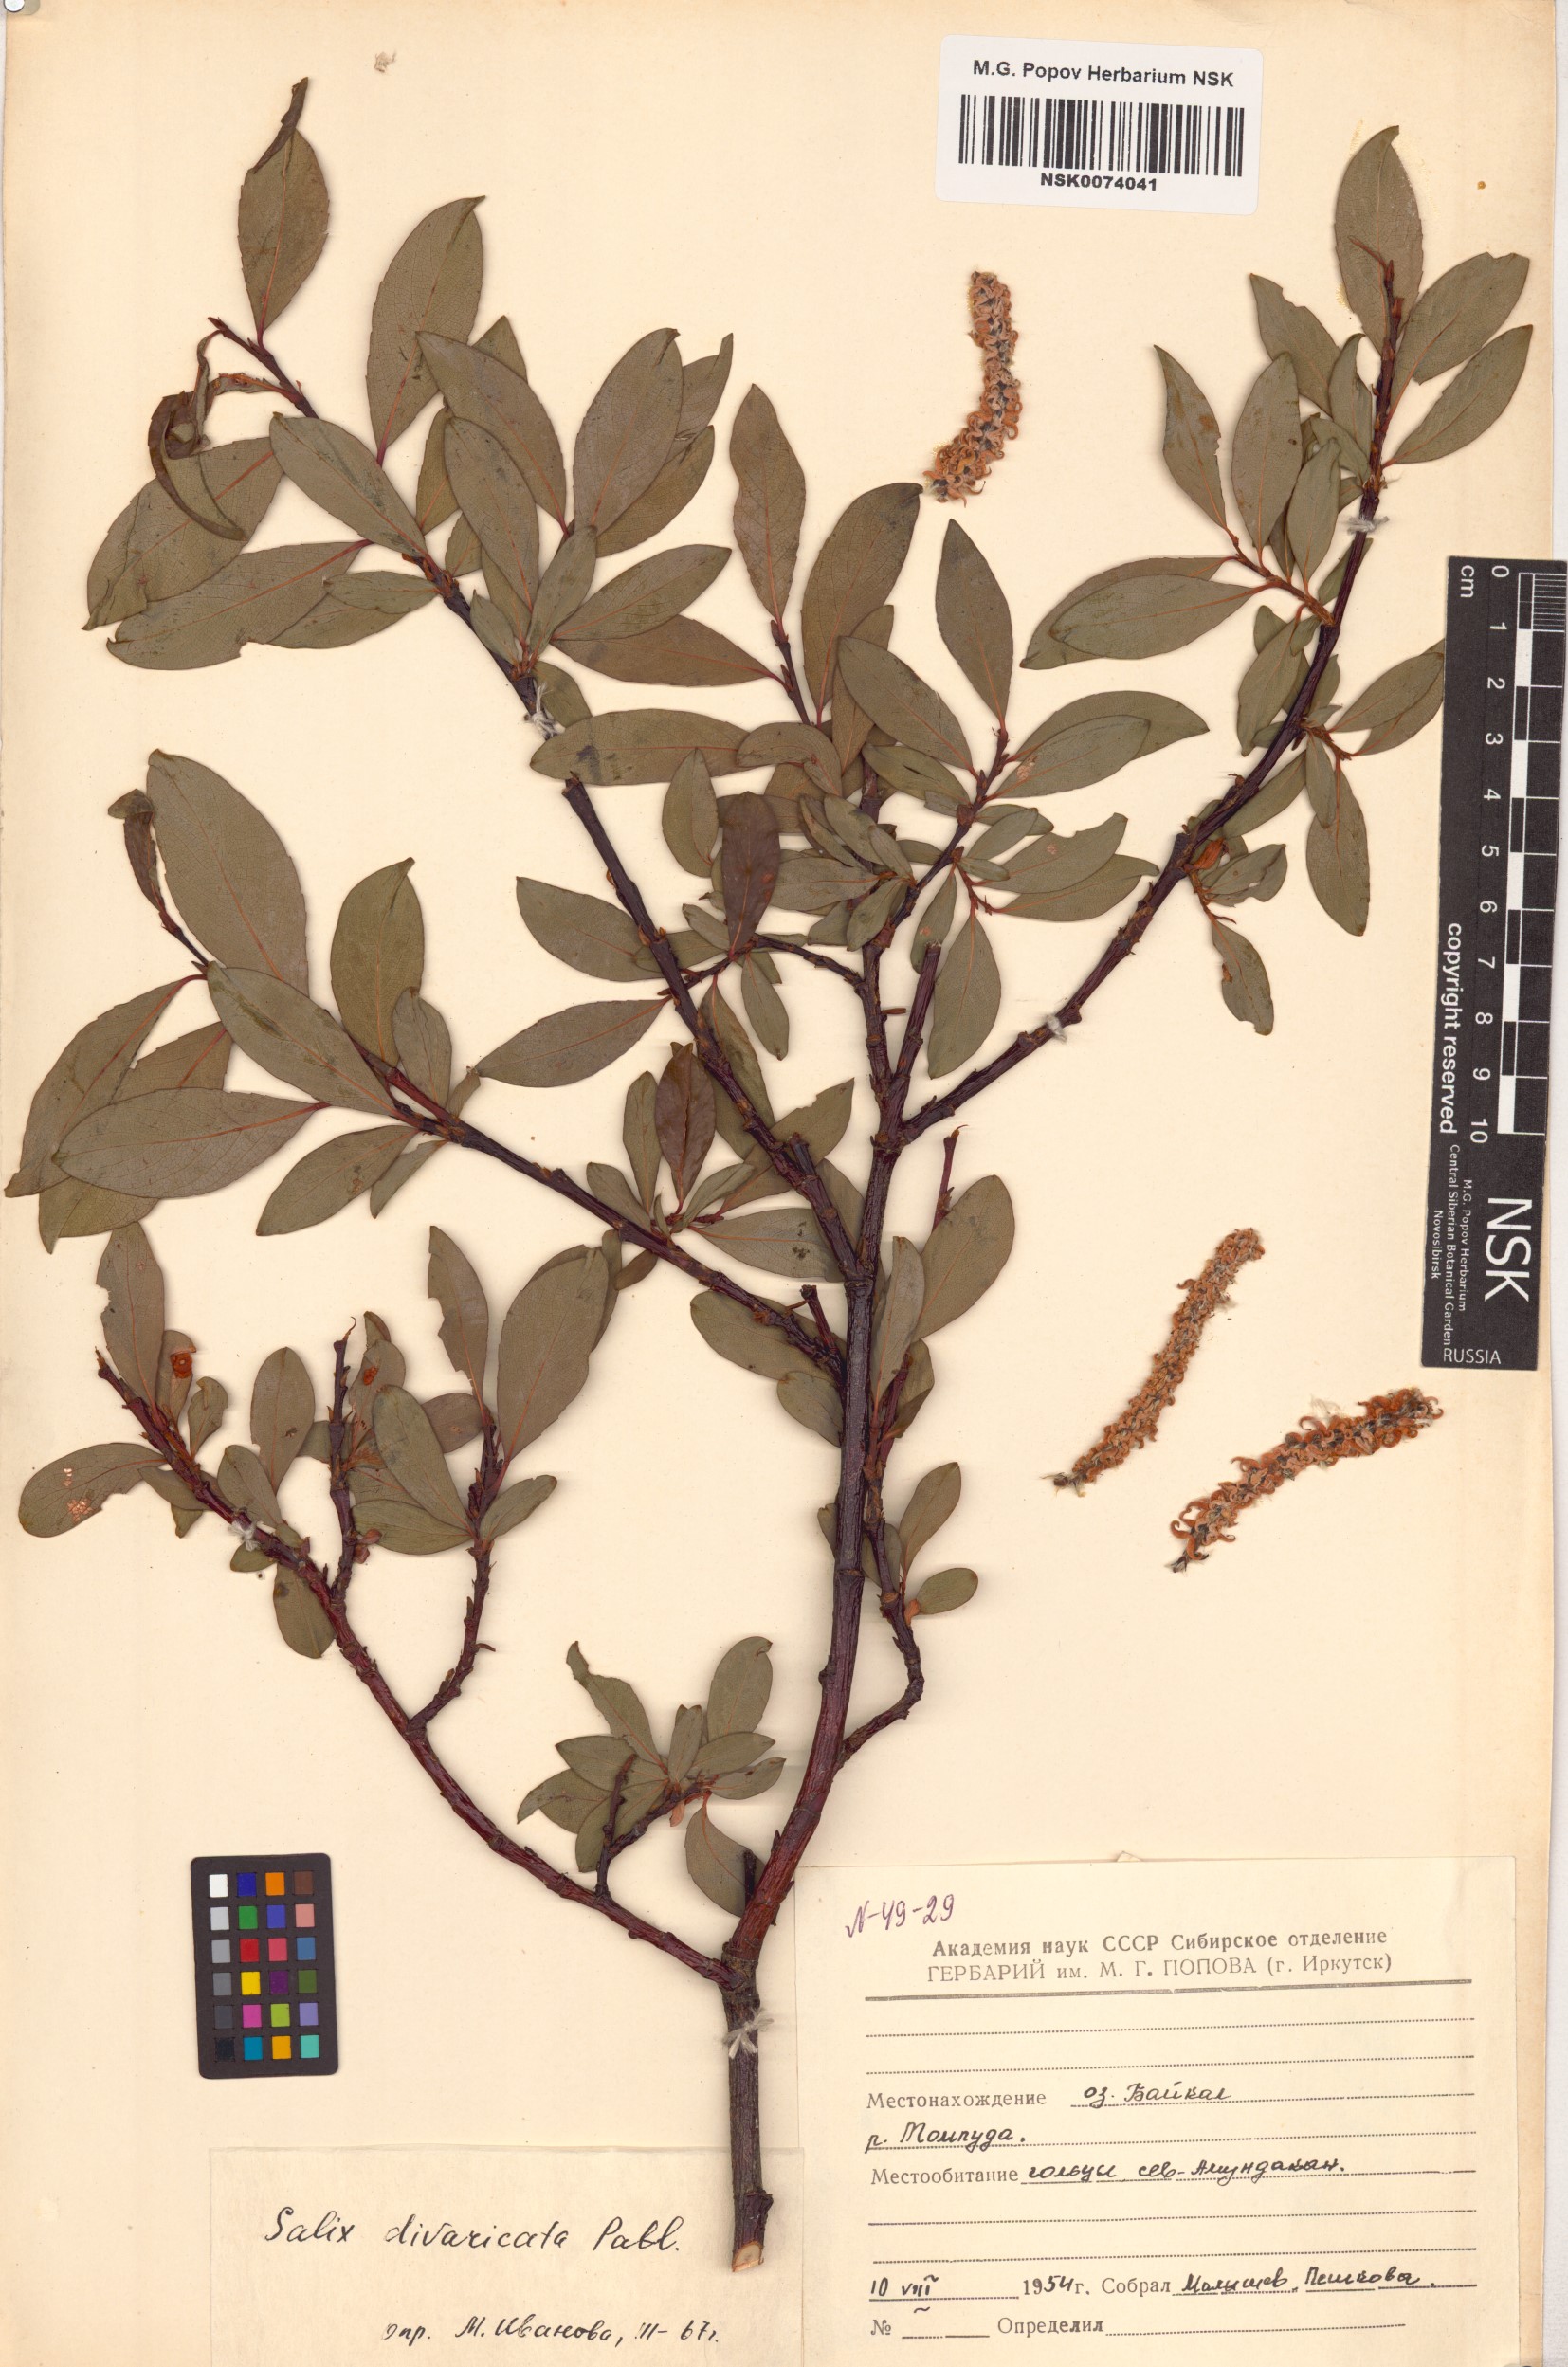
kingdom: Plantae
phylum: Tracheophyta
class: Magnoliopsida
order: Malpighiales
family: Salicaceae
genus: Salix
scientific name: Salix divaricata
